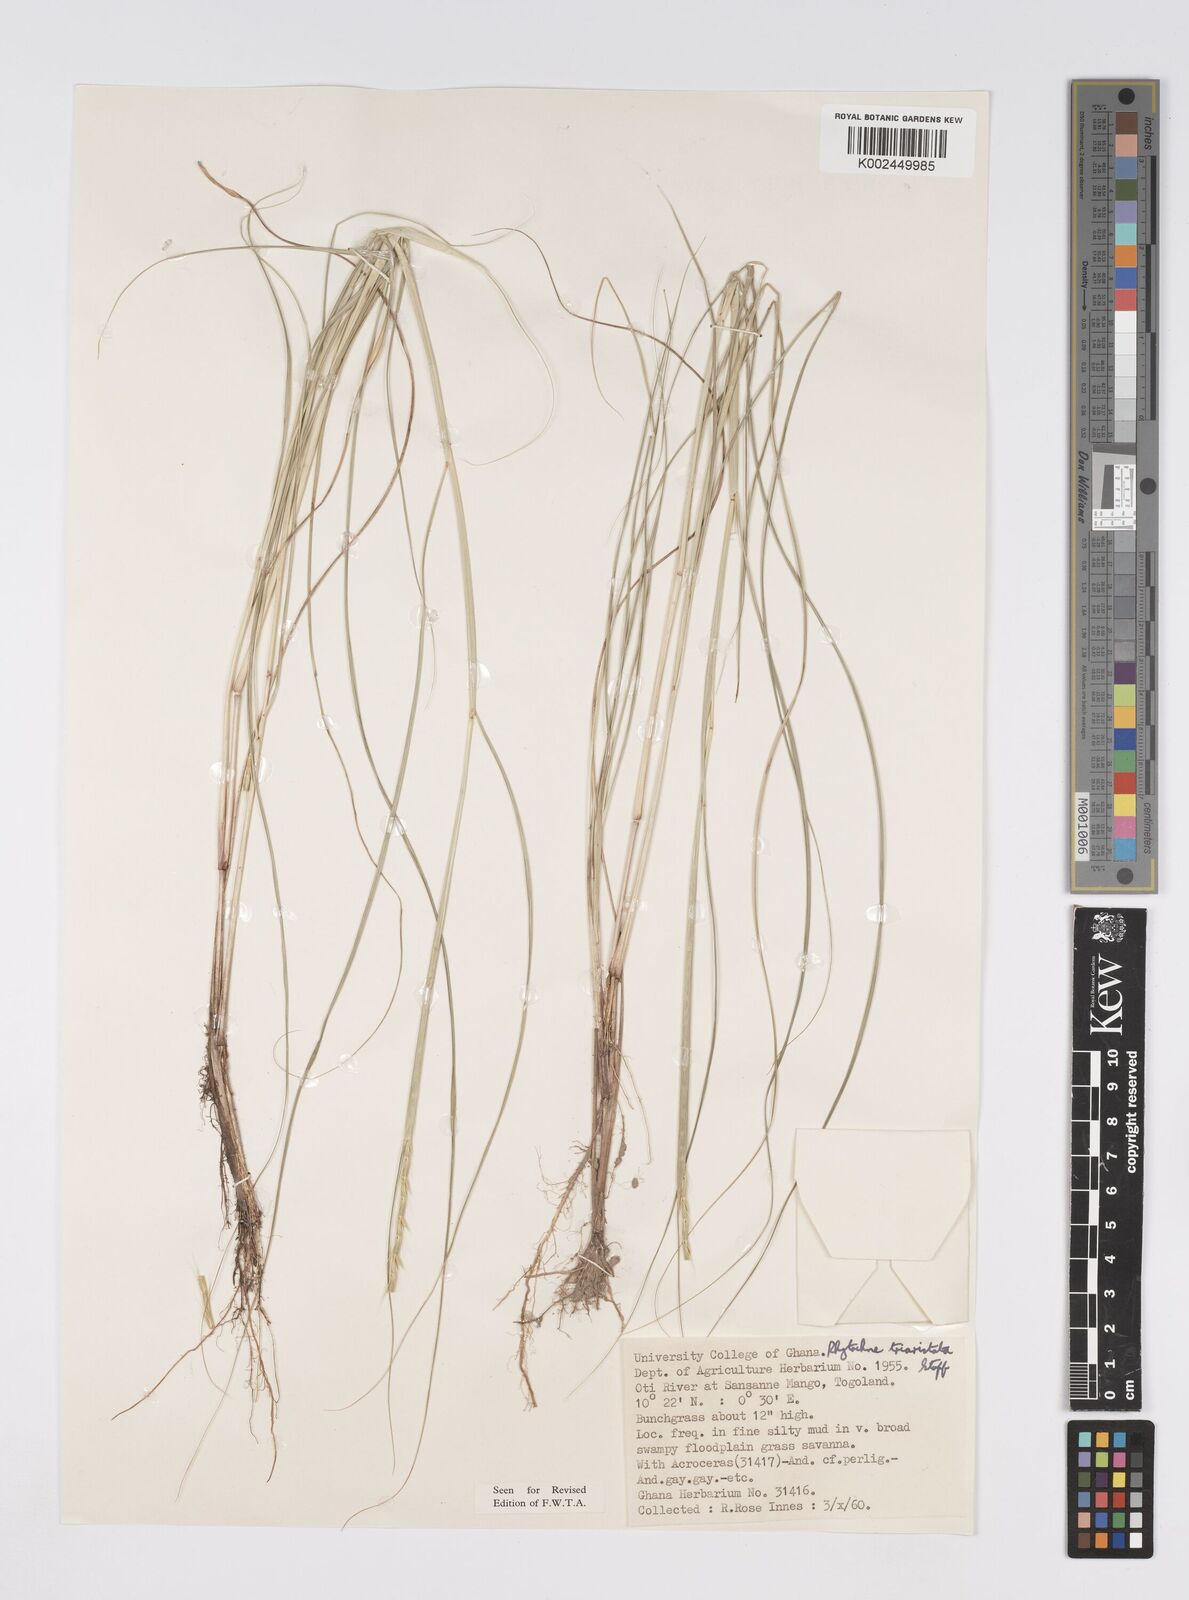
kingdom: Plantae
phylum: Tracheophyta
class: Liliopsida
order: Poales
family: Poaceae
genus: Rhytachne
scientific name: Rhytachne triaristata
